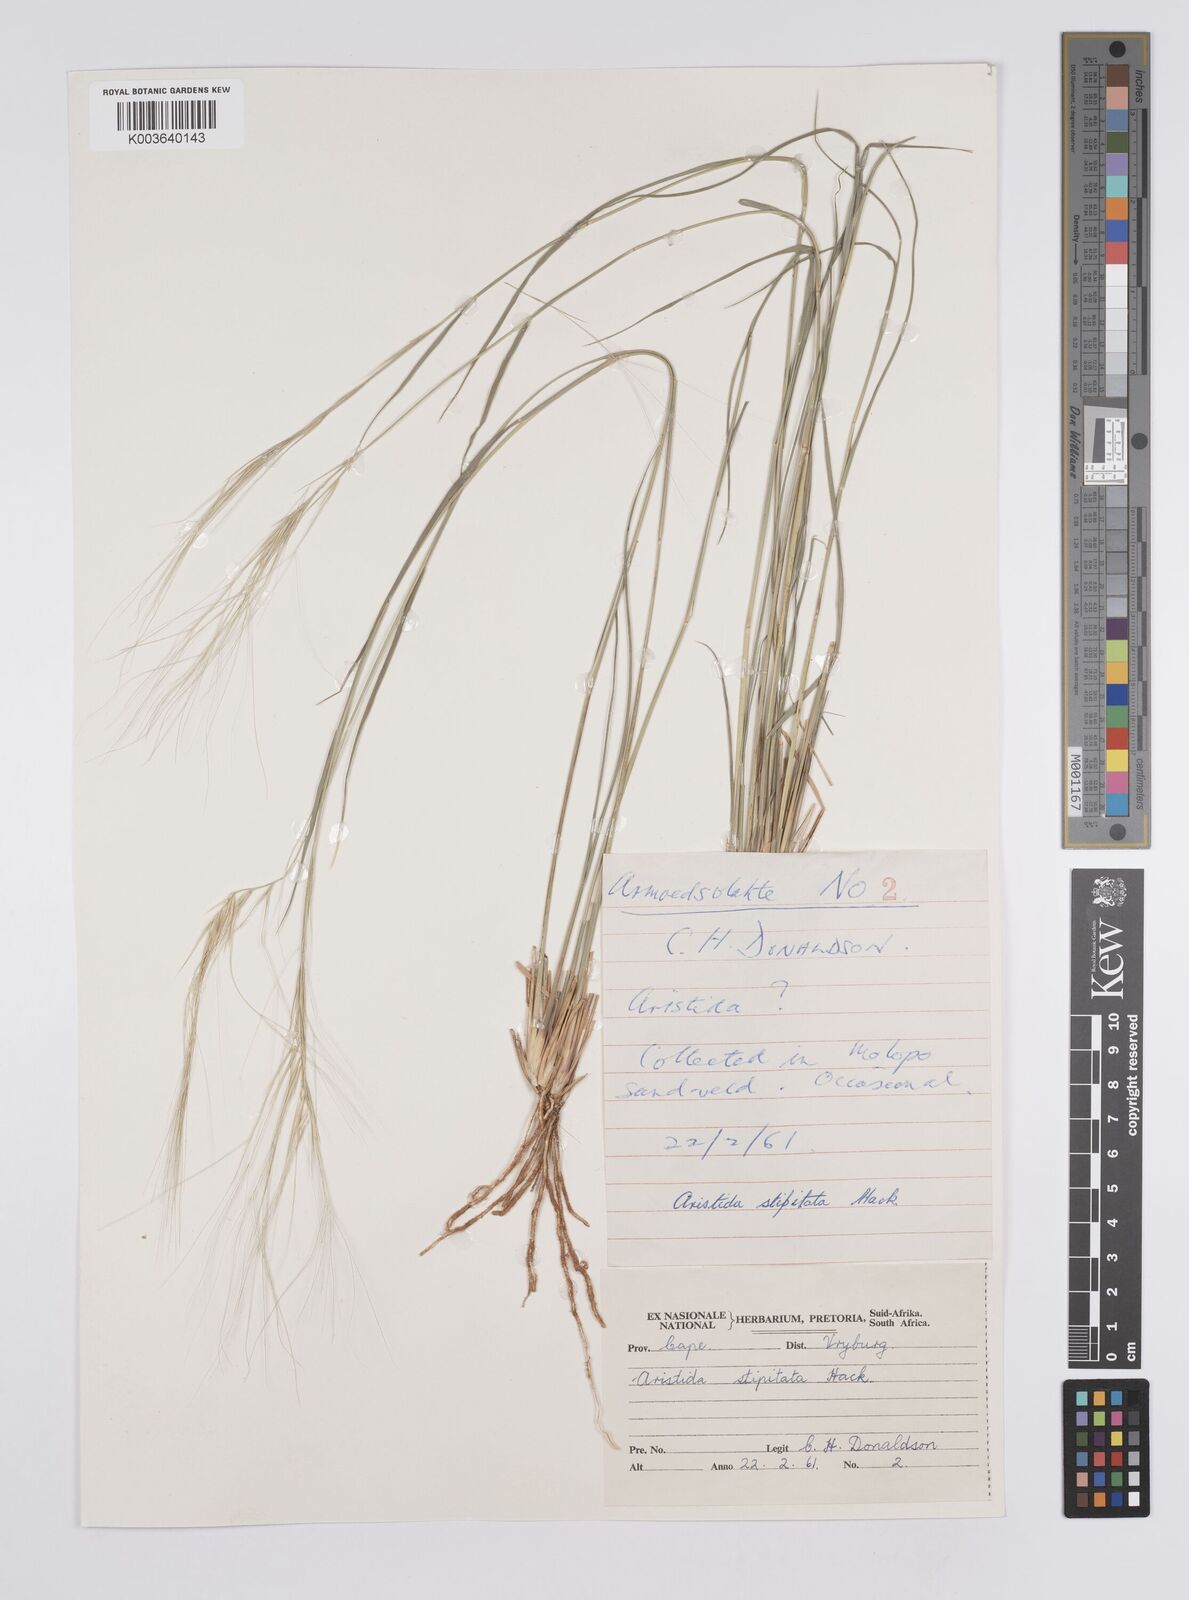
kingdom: Plantae
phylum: Tracheophyta
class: Liliopsida
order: Poales
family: Poaceae
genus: Aristida
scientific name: Aristida stipitata
